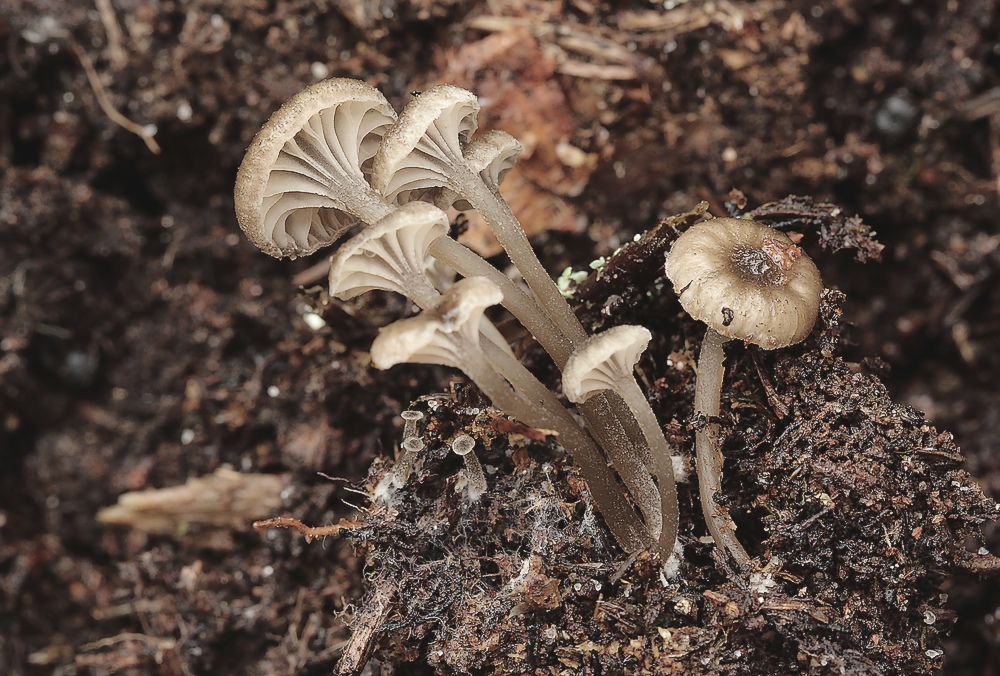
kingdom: Fungi
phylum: Basidiomycota
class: Agaricomycetes
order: Agaricales
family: Entolomataceae
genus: Entoloma
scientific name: Entoloma rhodocylix
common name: fjernbladet rødblad
